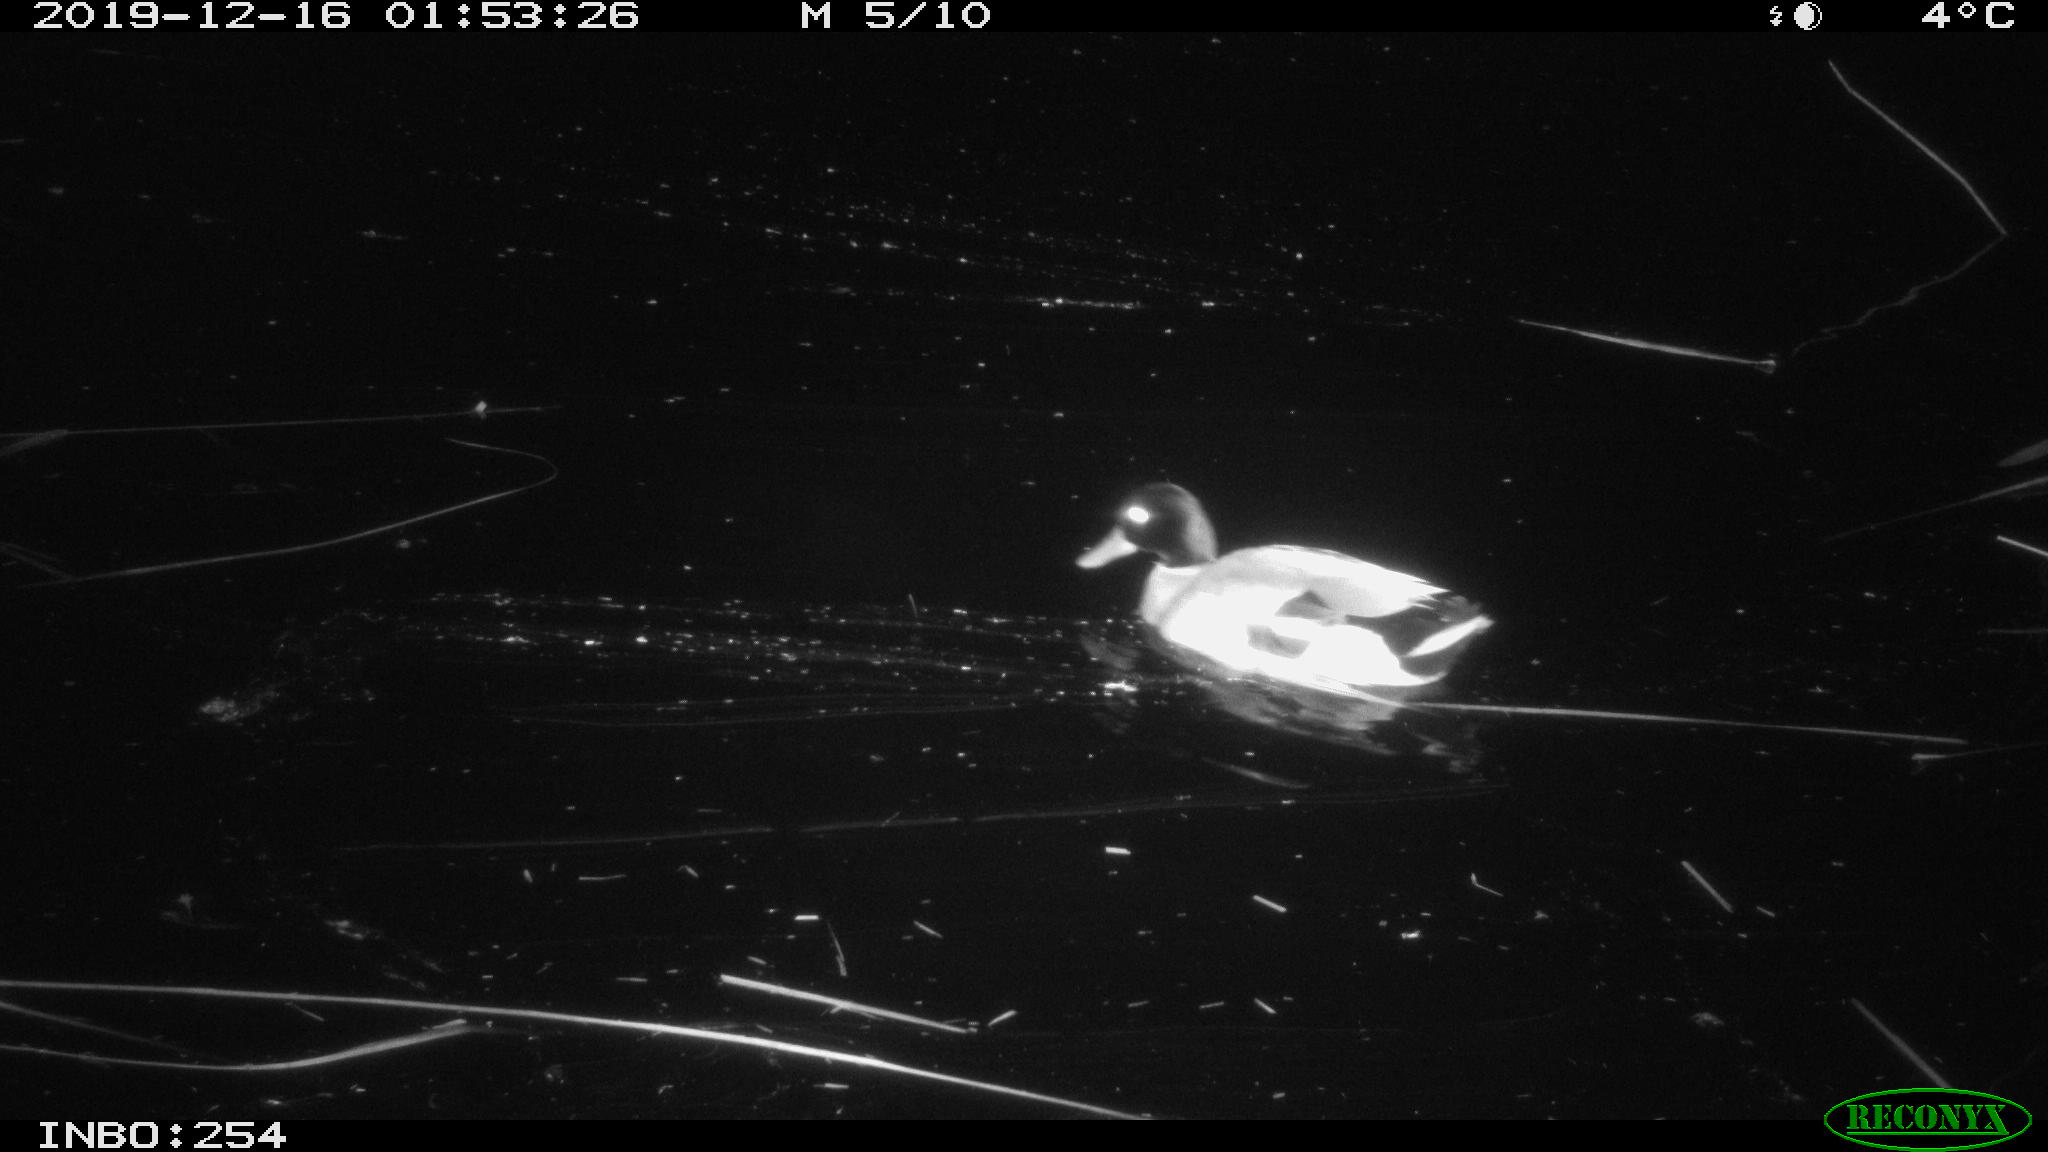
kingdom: Animalia
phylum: Chordata
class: Aves
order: Anseriformes
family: Anatidae
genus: Anas
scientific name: Anas platyrhynchos
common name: Mallard
